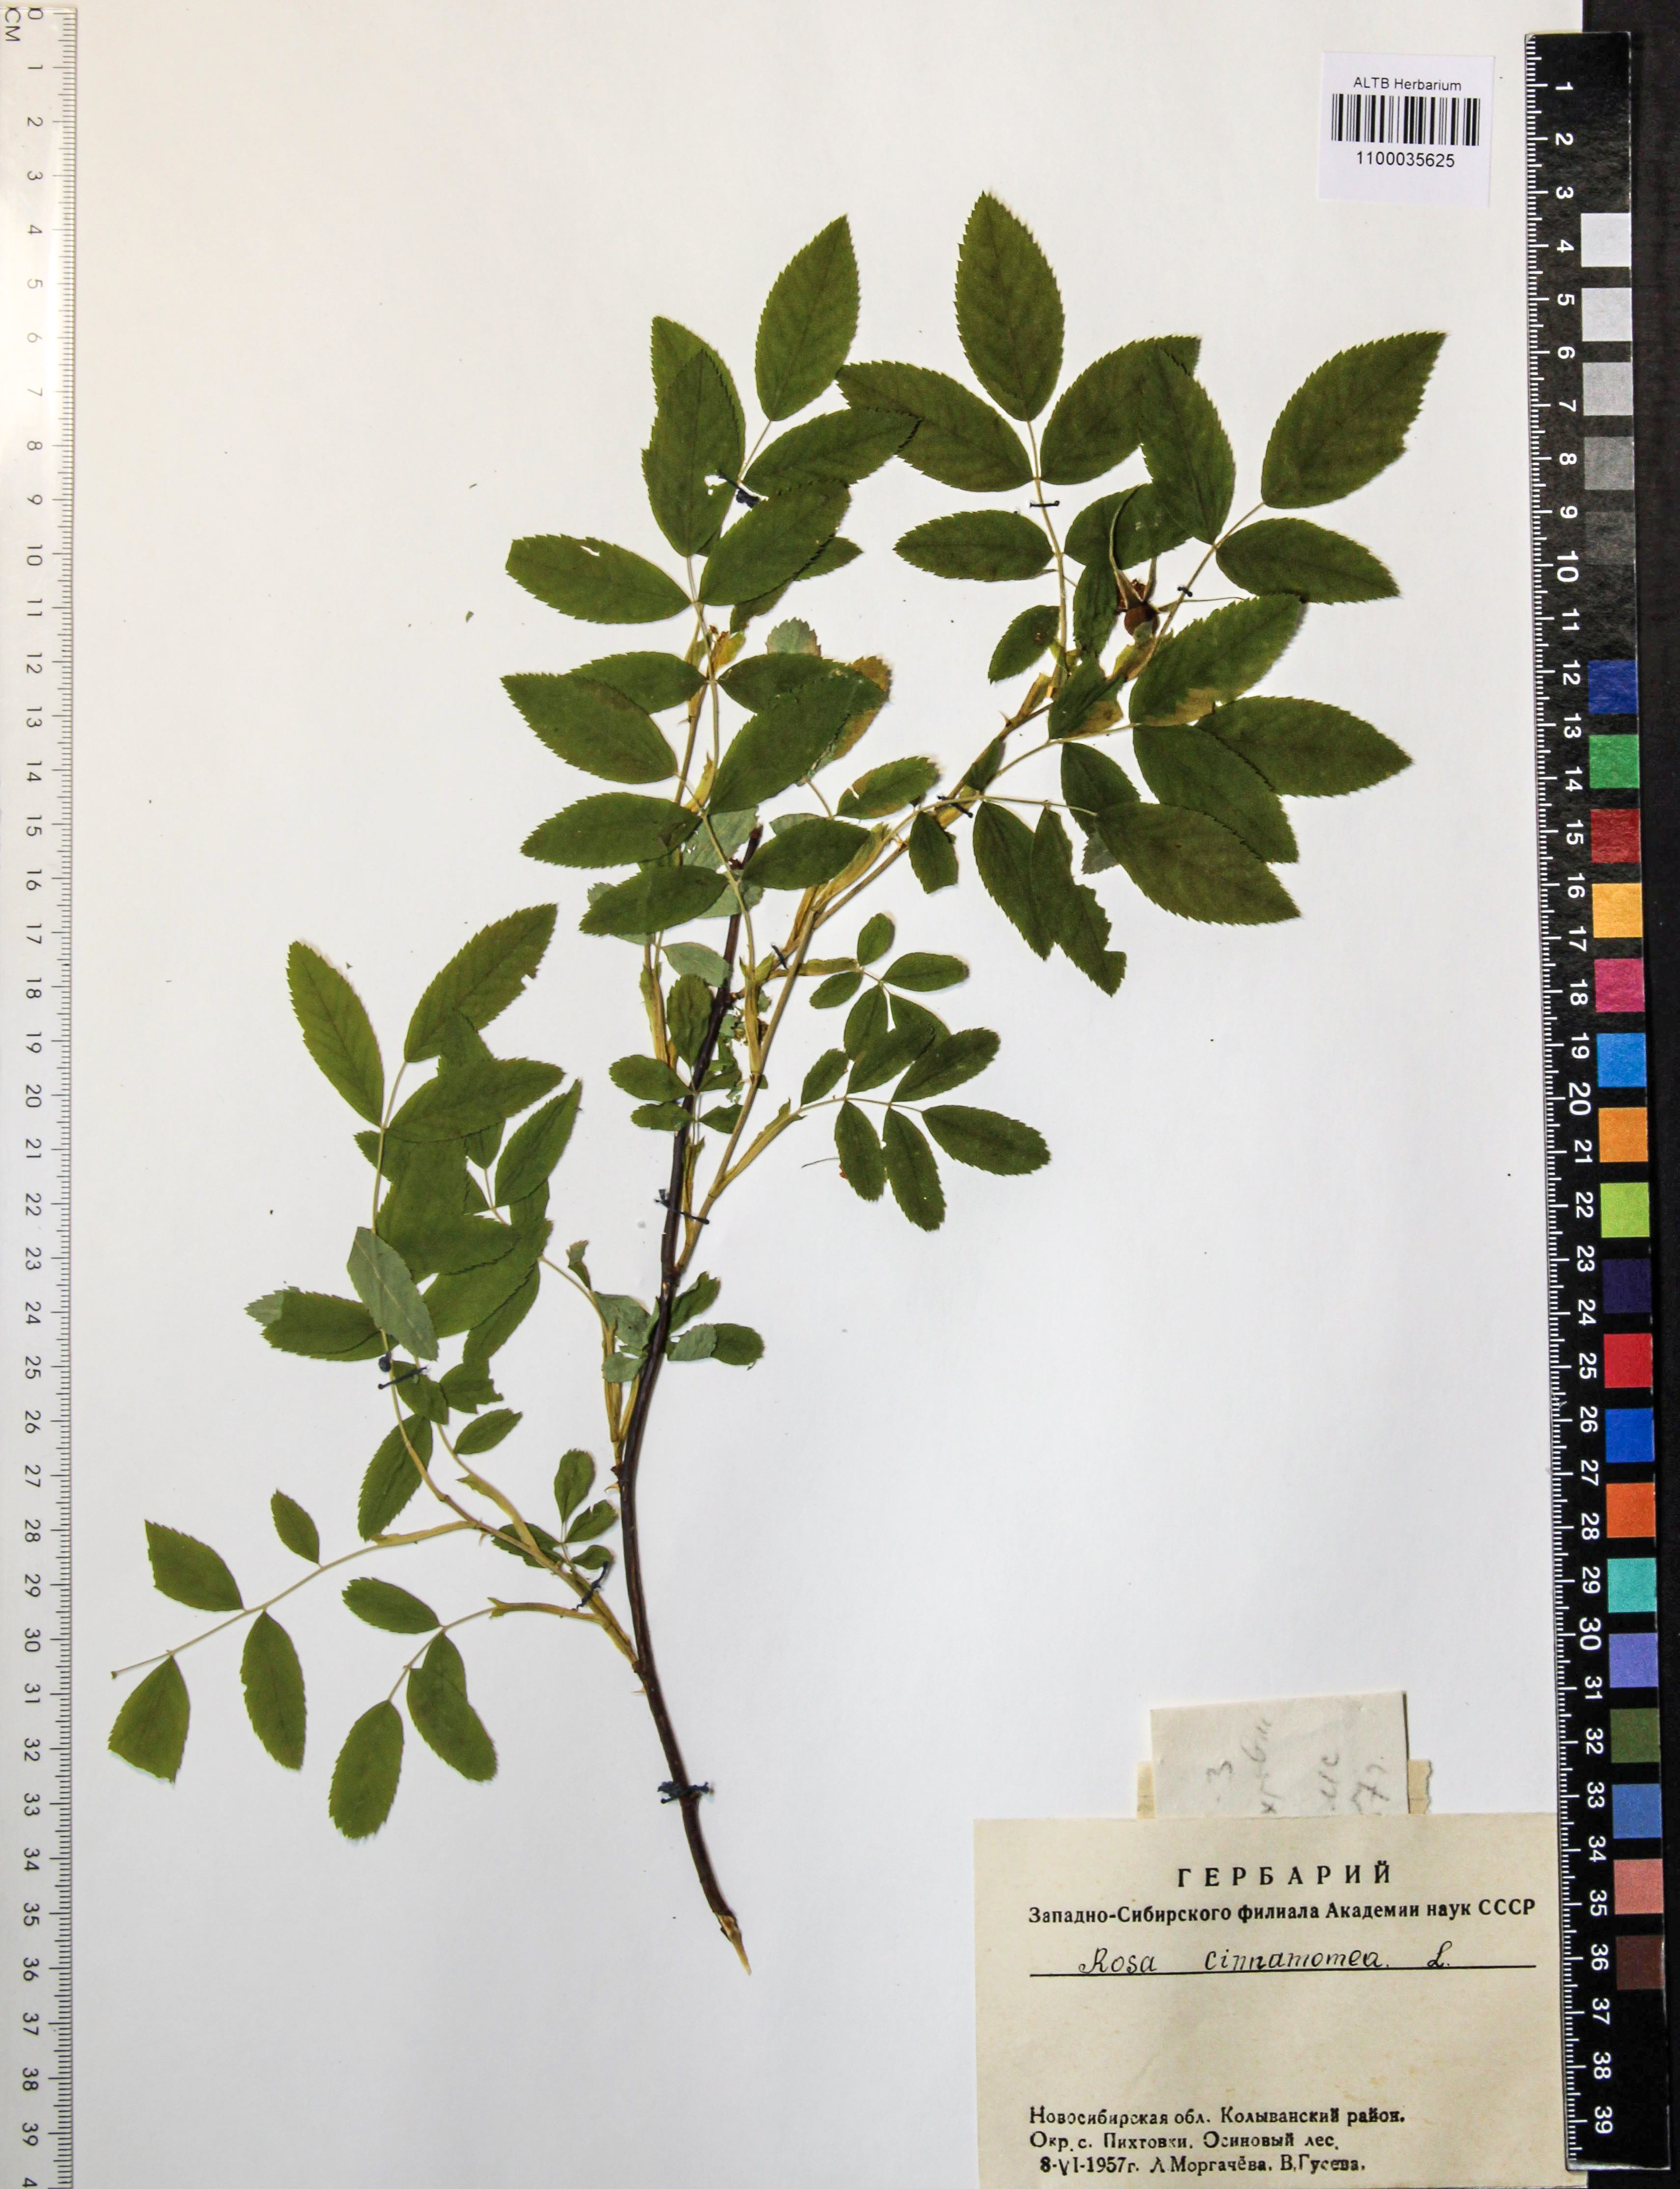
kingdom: Plantae
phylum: Tracheophyta
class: Magnoliopsida
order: Rosales
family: Rosaceae
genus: Rosa
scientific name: Rosa pendulina
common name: Alpine rose
